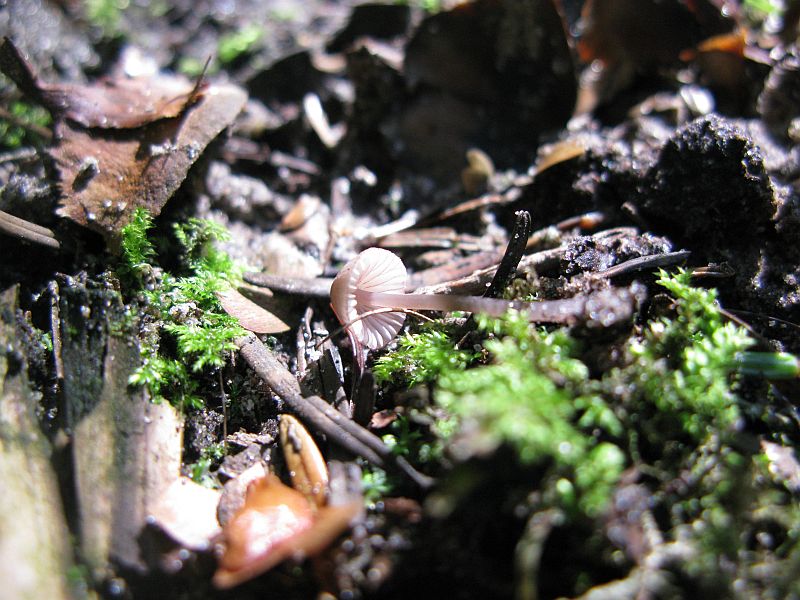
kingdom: Fungi
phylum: Basidiomycota
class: Agaricomycetes
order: Agaricales
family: Mycenaceae
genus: Mycena
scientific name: Mycena capillaripes
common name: nåle-huesvamp
